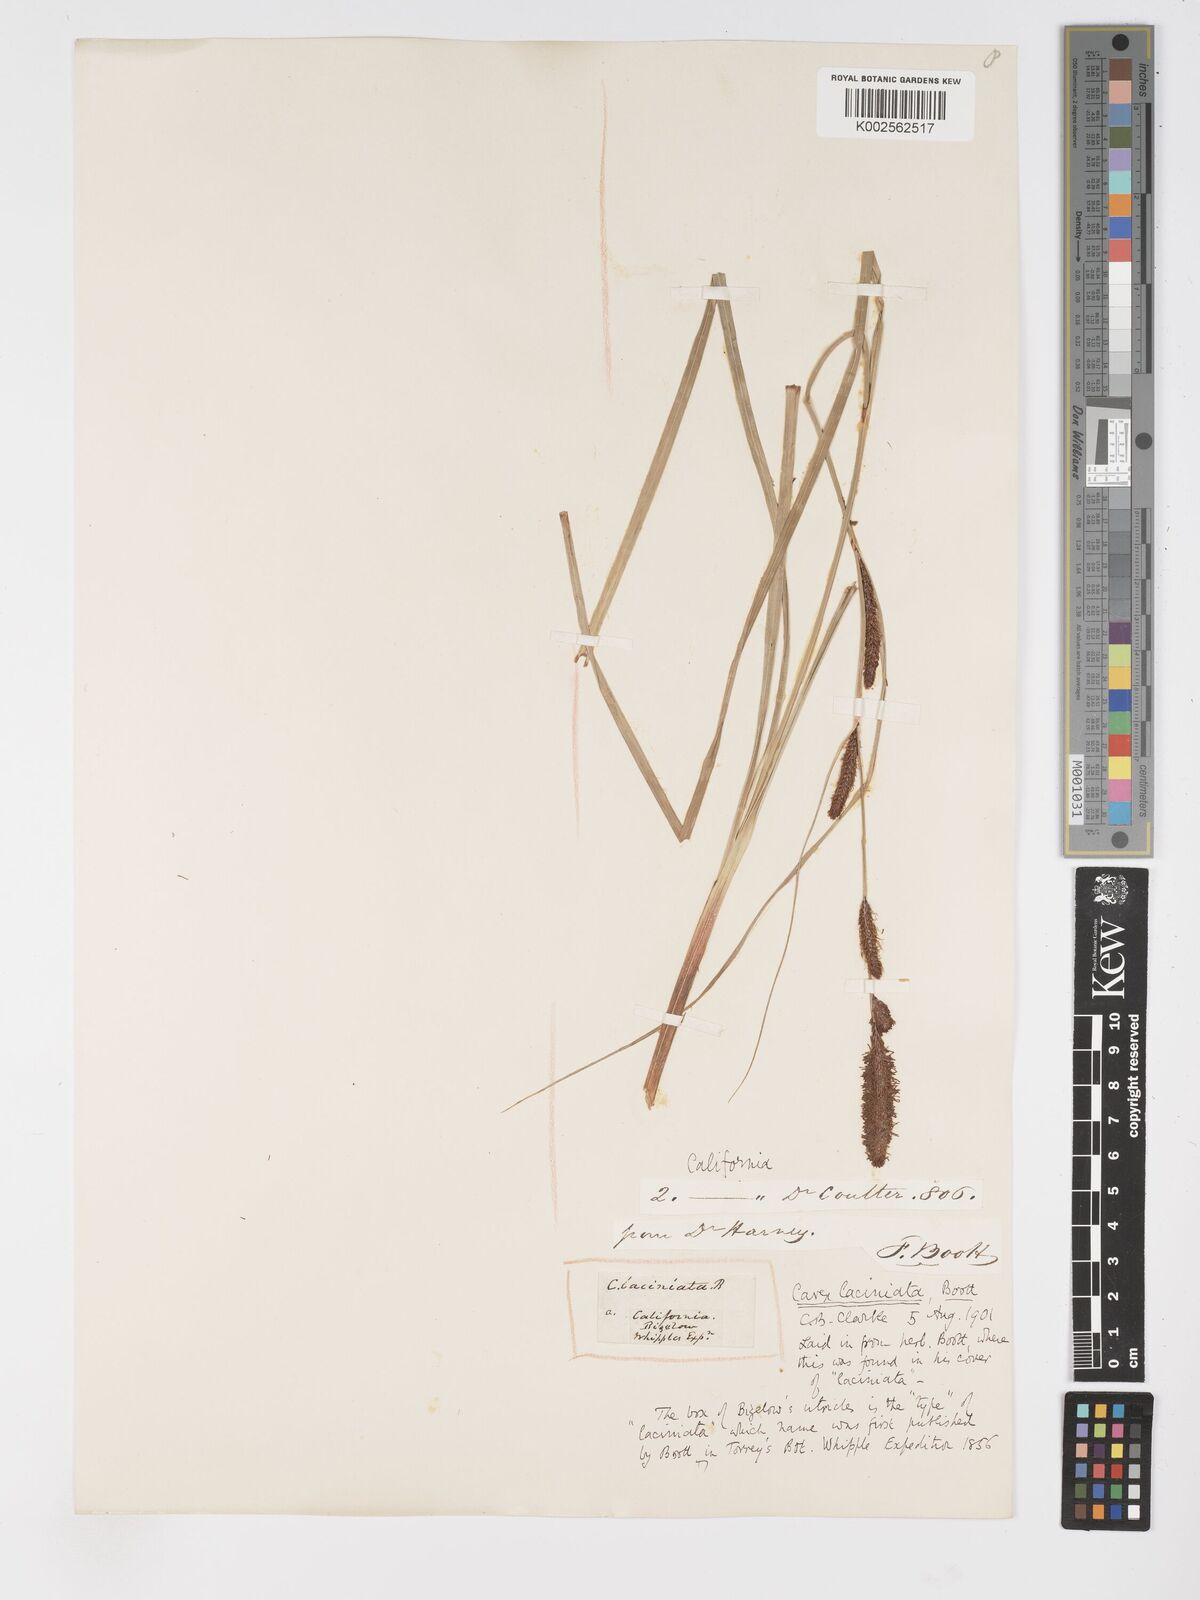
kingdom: Plantae
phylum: Tracheophyta
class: Liliopsida
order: Poales
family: Cyperaceae
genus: Carex
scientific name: Carex barbarae
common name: Santa barbara sedge
